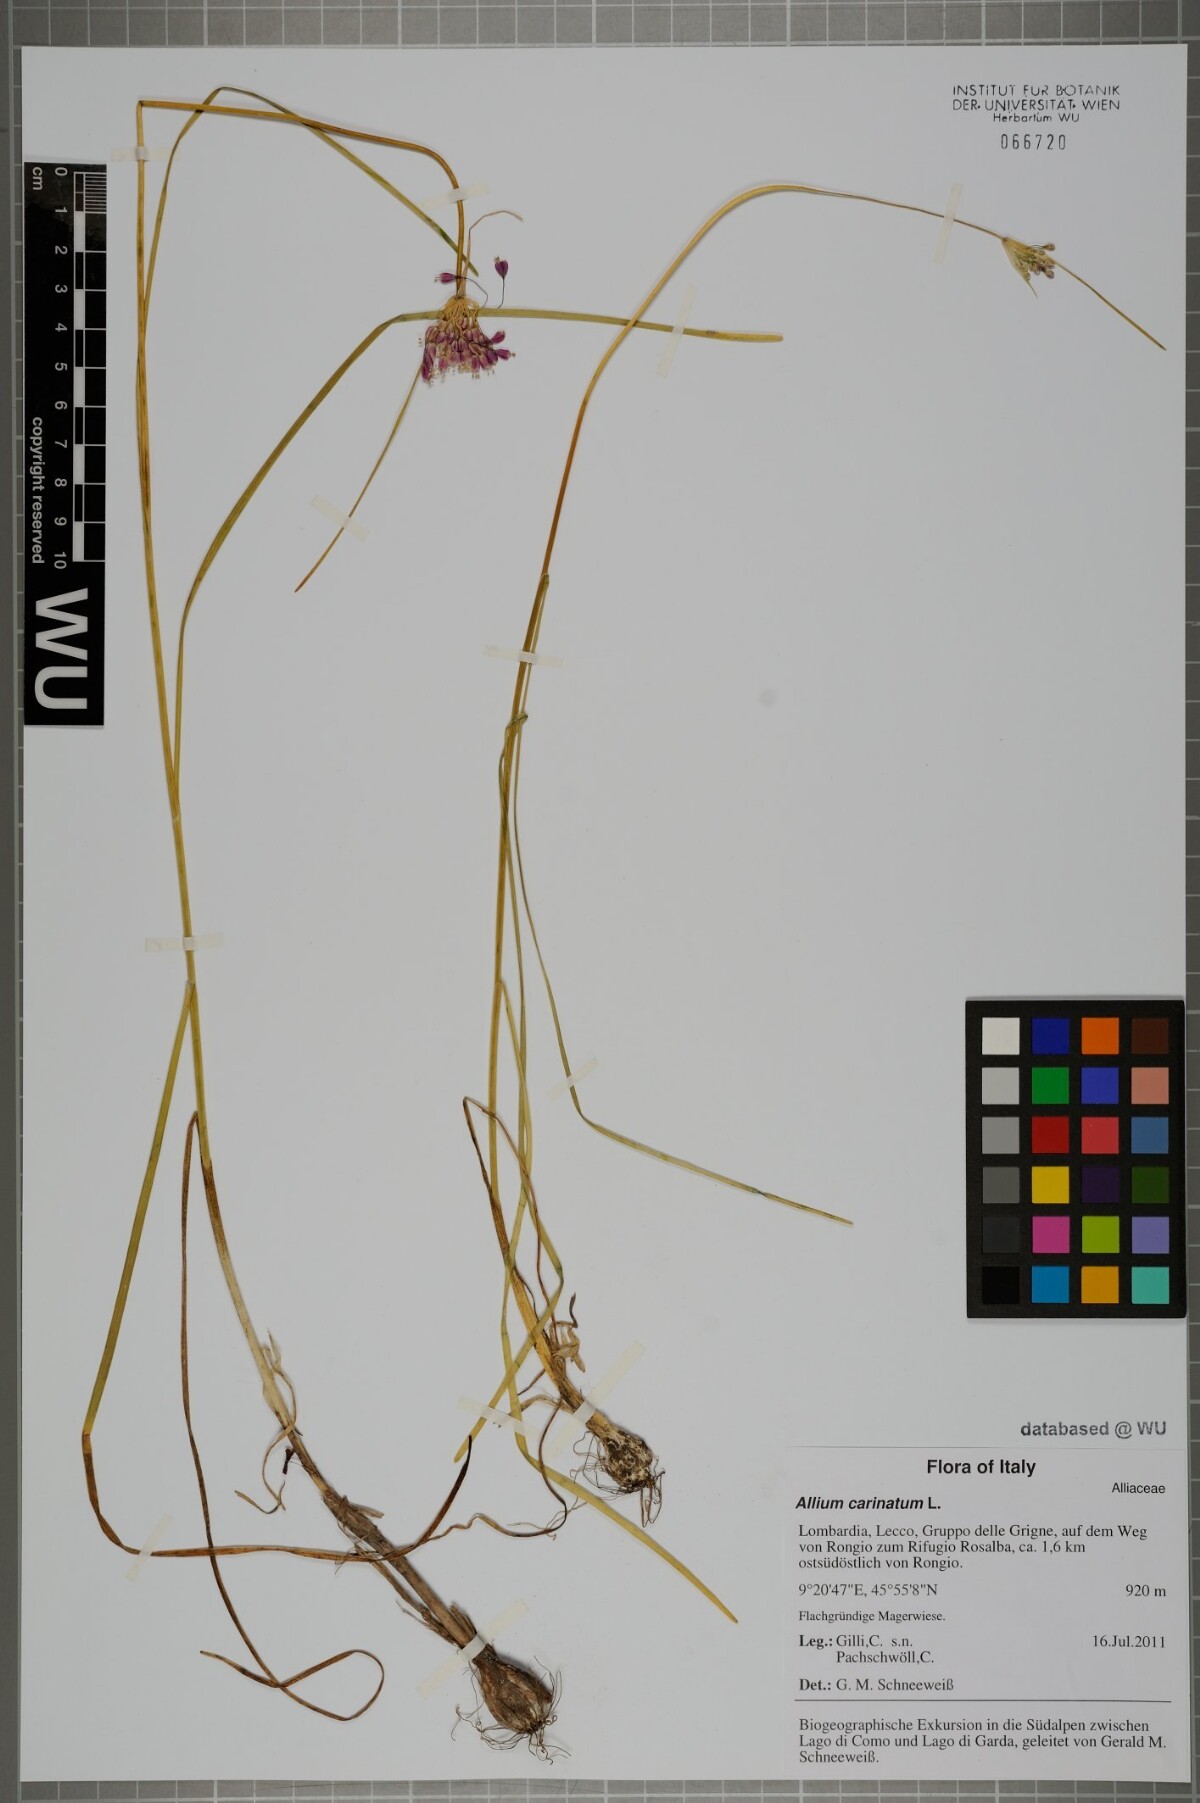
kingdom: Plantae
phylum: Tracheophyta
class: Liliopsida
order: Asparagales
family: Amaryllidaceae
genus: Allium
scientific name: Allium coloratum
